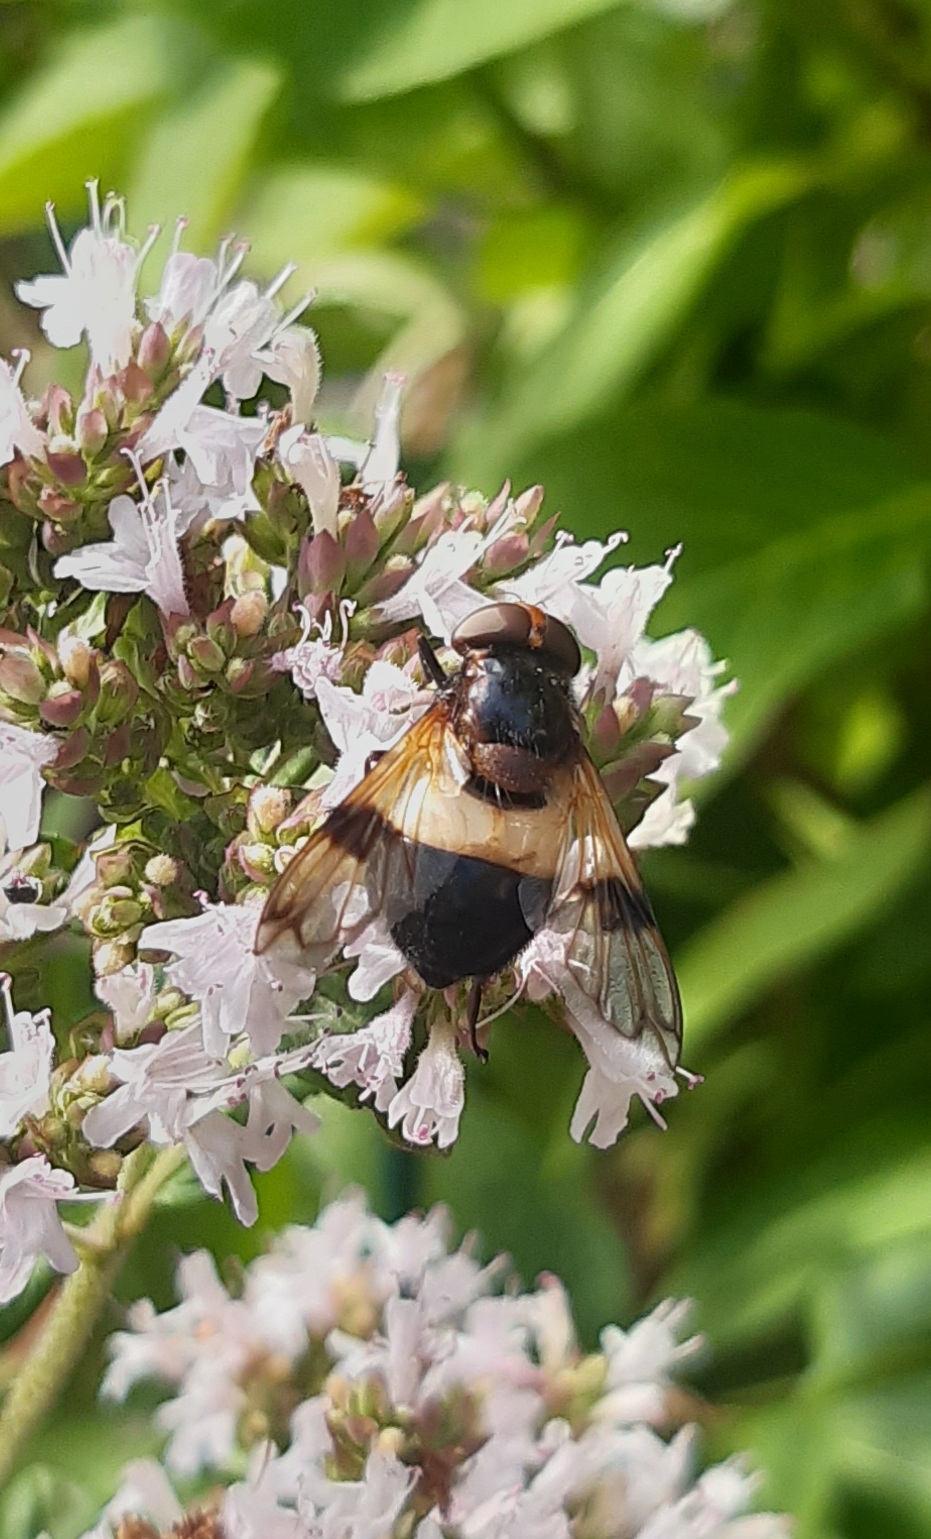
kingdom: Animalia
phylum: Arthropoda
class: Insecta
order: Diptera
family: Syrphidae
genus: Volucella
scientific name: Volucella pellucens
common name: Hvidbåndet humlesvirreflue
